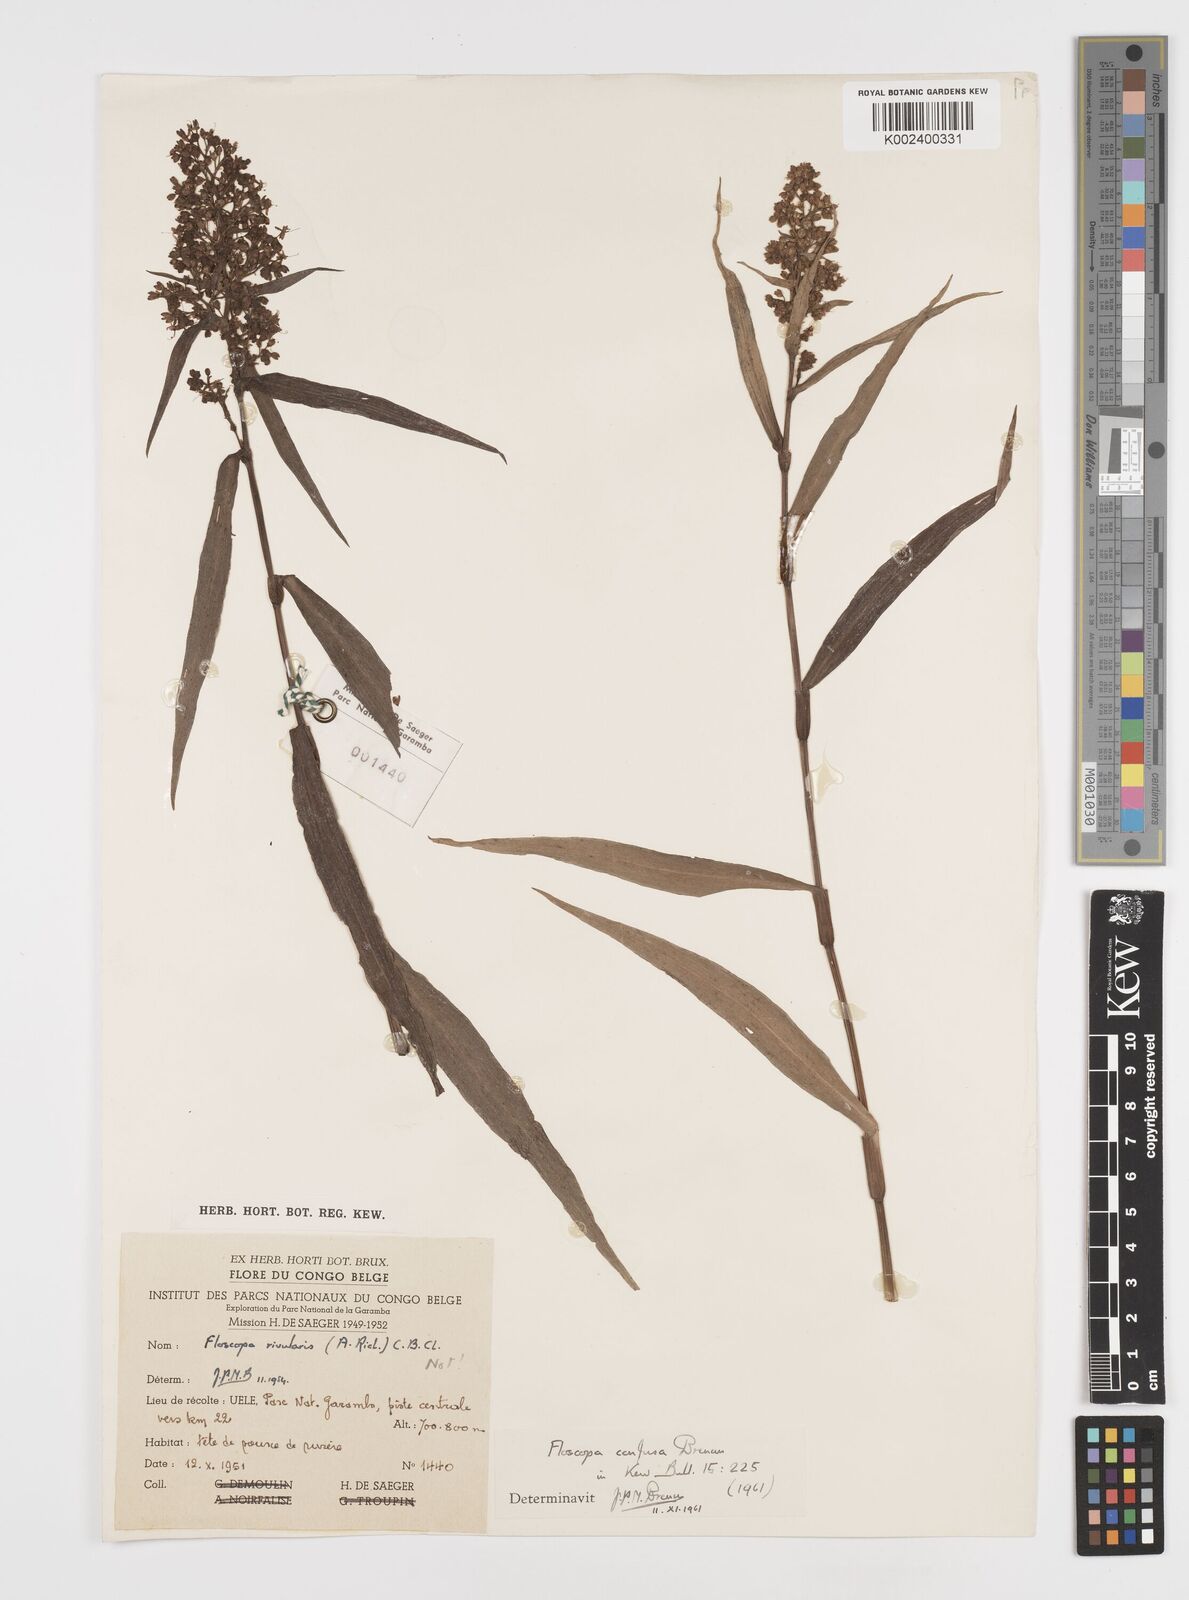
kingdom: Plantae
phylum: Tracheophyta
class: Liliopsida
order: Commelinales
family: Commelinaceae
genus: Floscopa
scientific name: Floscopa confusa
